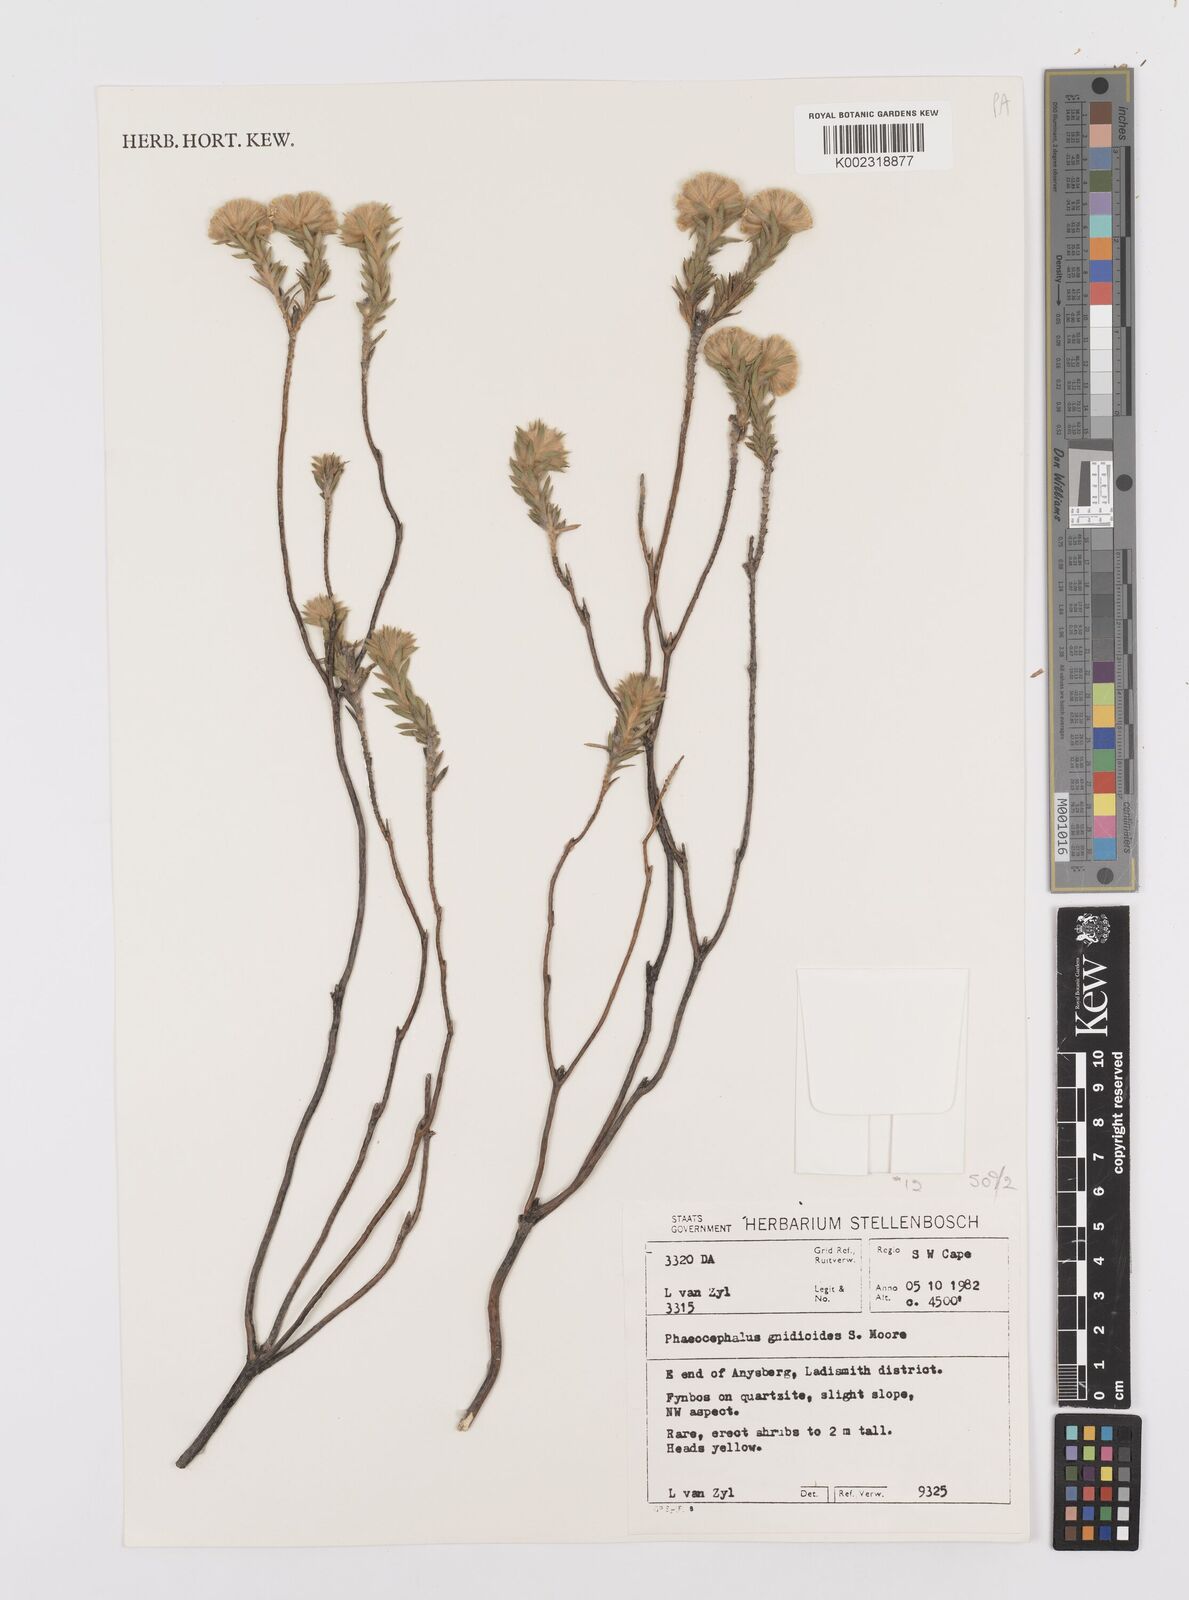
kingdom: Plantae
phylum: Tracheophyta
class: Magnoliopsida
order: Asterales
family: Asteraceae
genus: Hymenolepis
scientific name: Hymenolepis gnidioides
